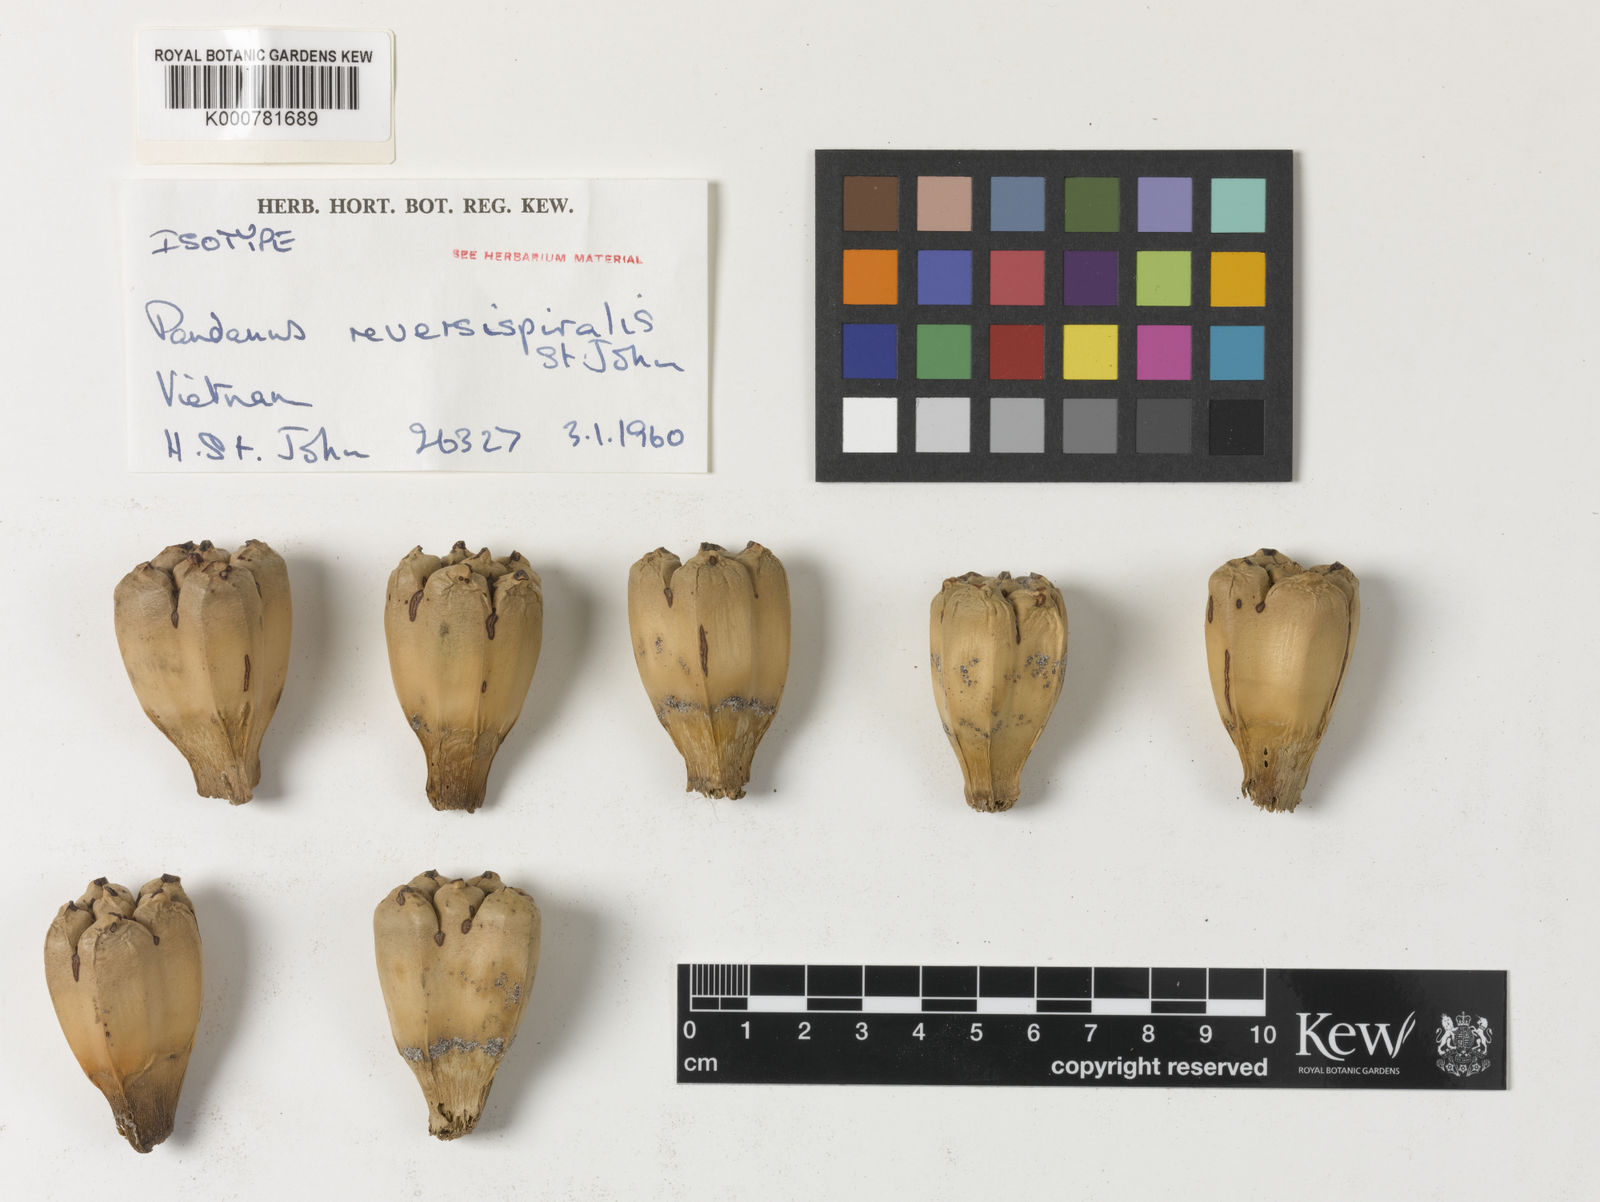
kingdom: Plantae
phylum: Tracheophyta
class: Liliopsida
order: Pandanales
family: Pandanaceae
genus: Pandanus
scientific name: Pandanus odorifer
